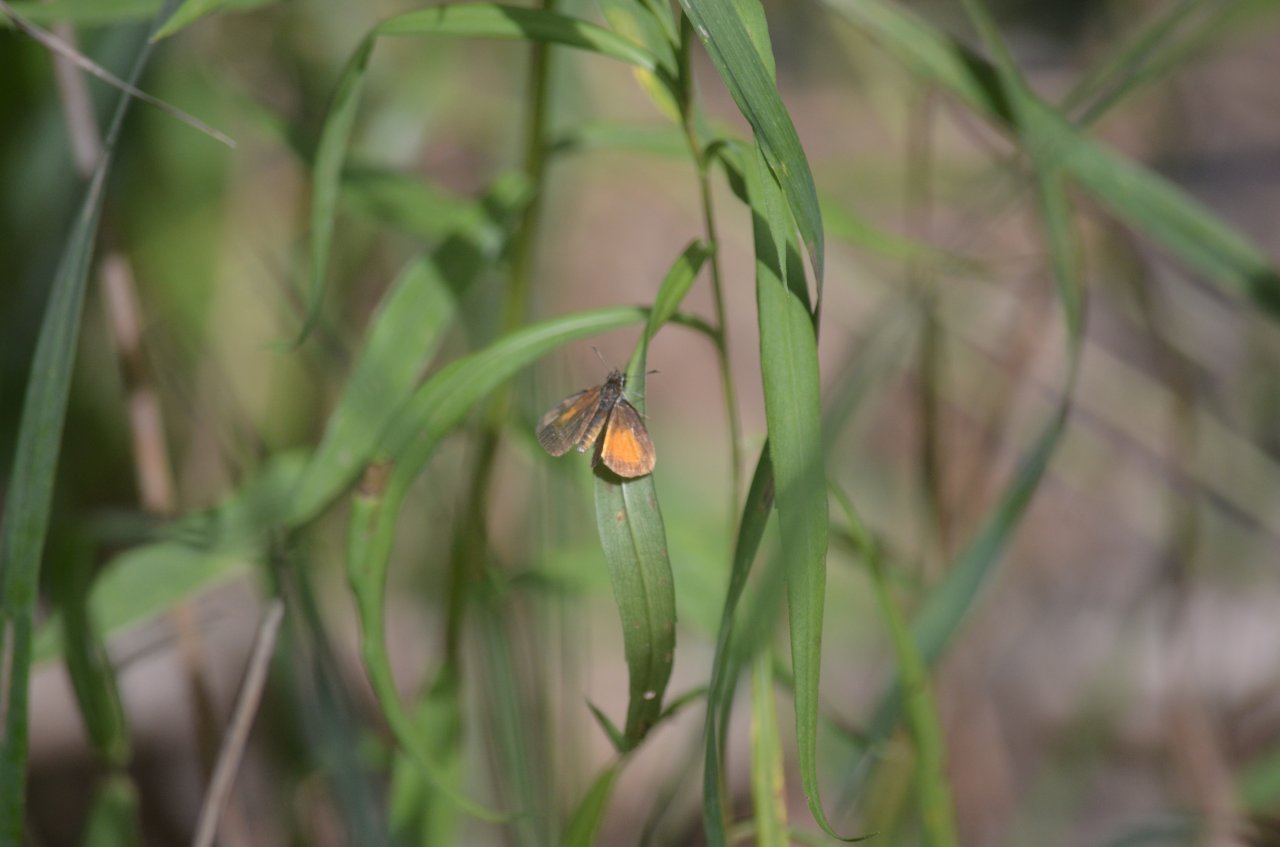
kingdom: Animalia
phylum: Arthropoda
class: Insecta
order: Lepidoptera
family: Hesperiidae
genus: Ancyloxypha
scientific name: Ancyloxypha numitor
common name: Least Skipper
